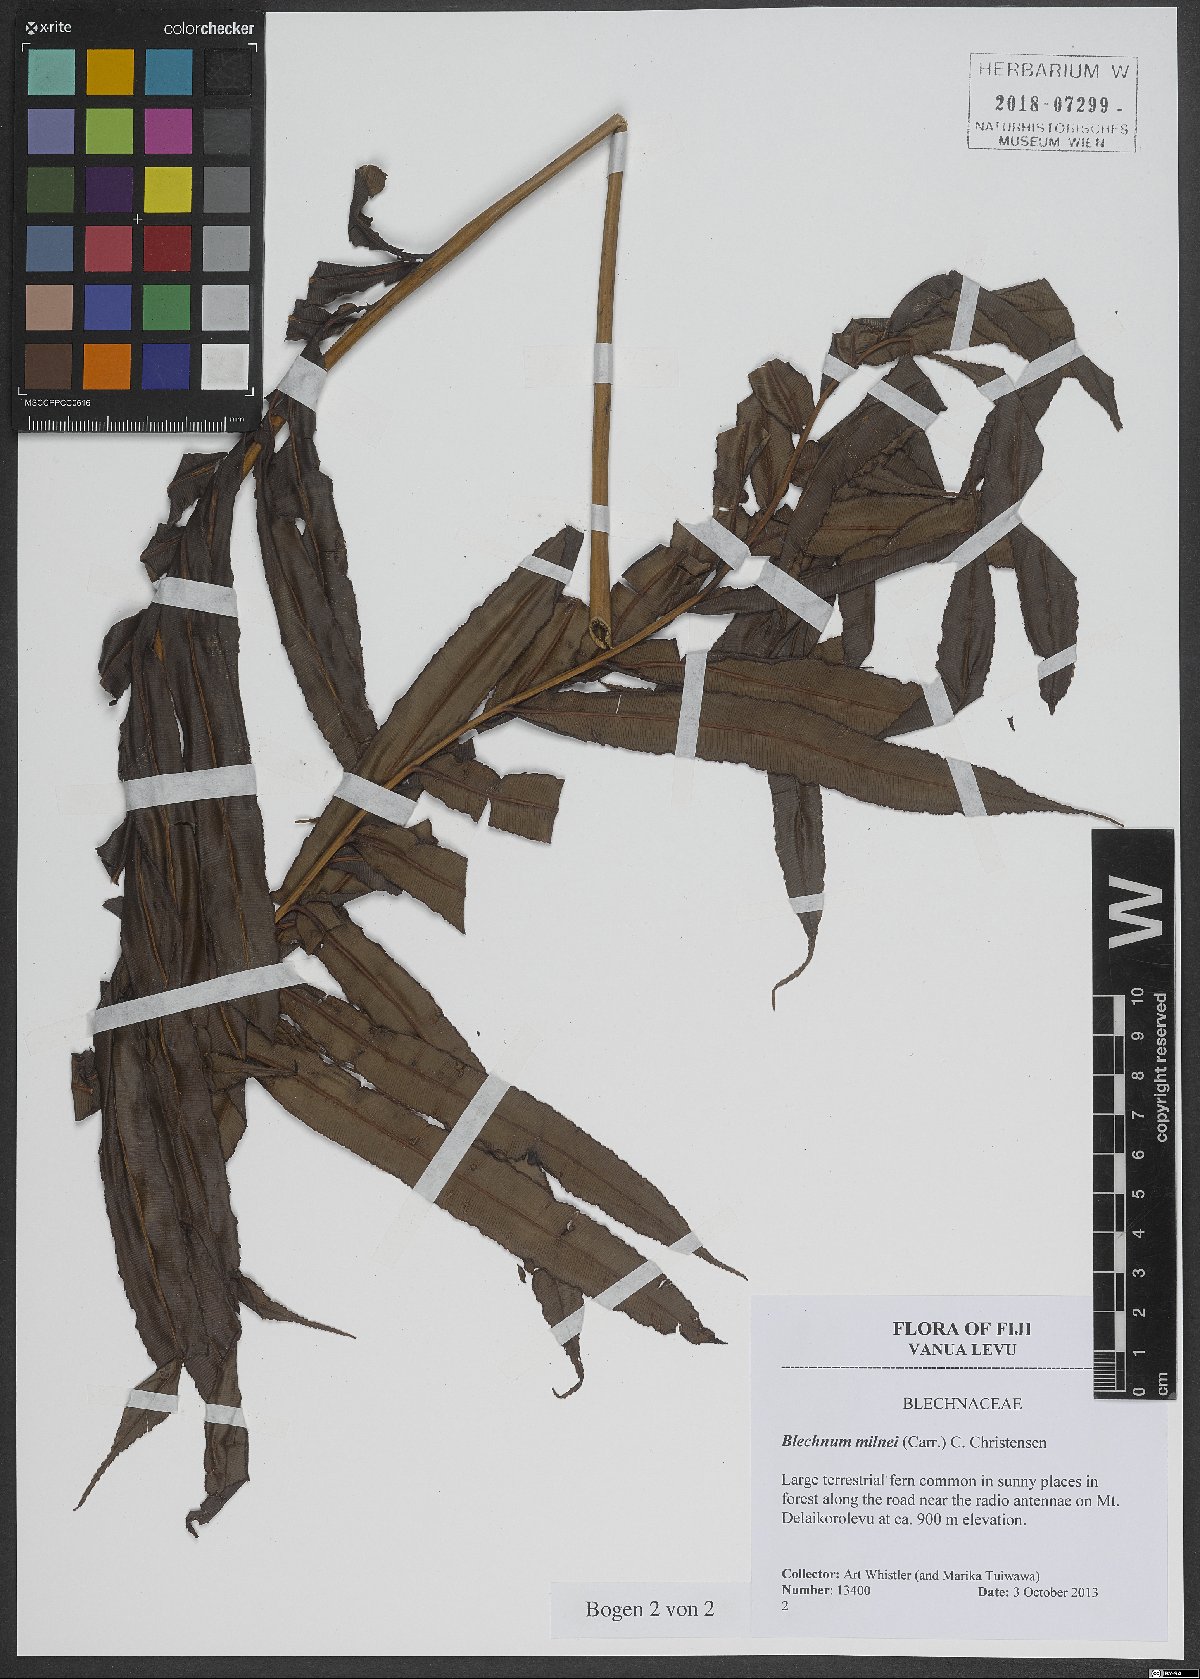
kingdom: Plantae
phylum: Tracheophyta
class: Polypodiopsida
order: Polypodiales
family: Blechnaceae
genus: Parablechnum
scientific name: Parablechnum milnei
